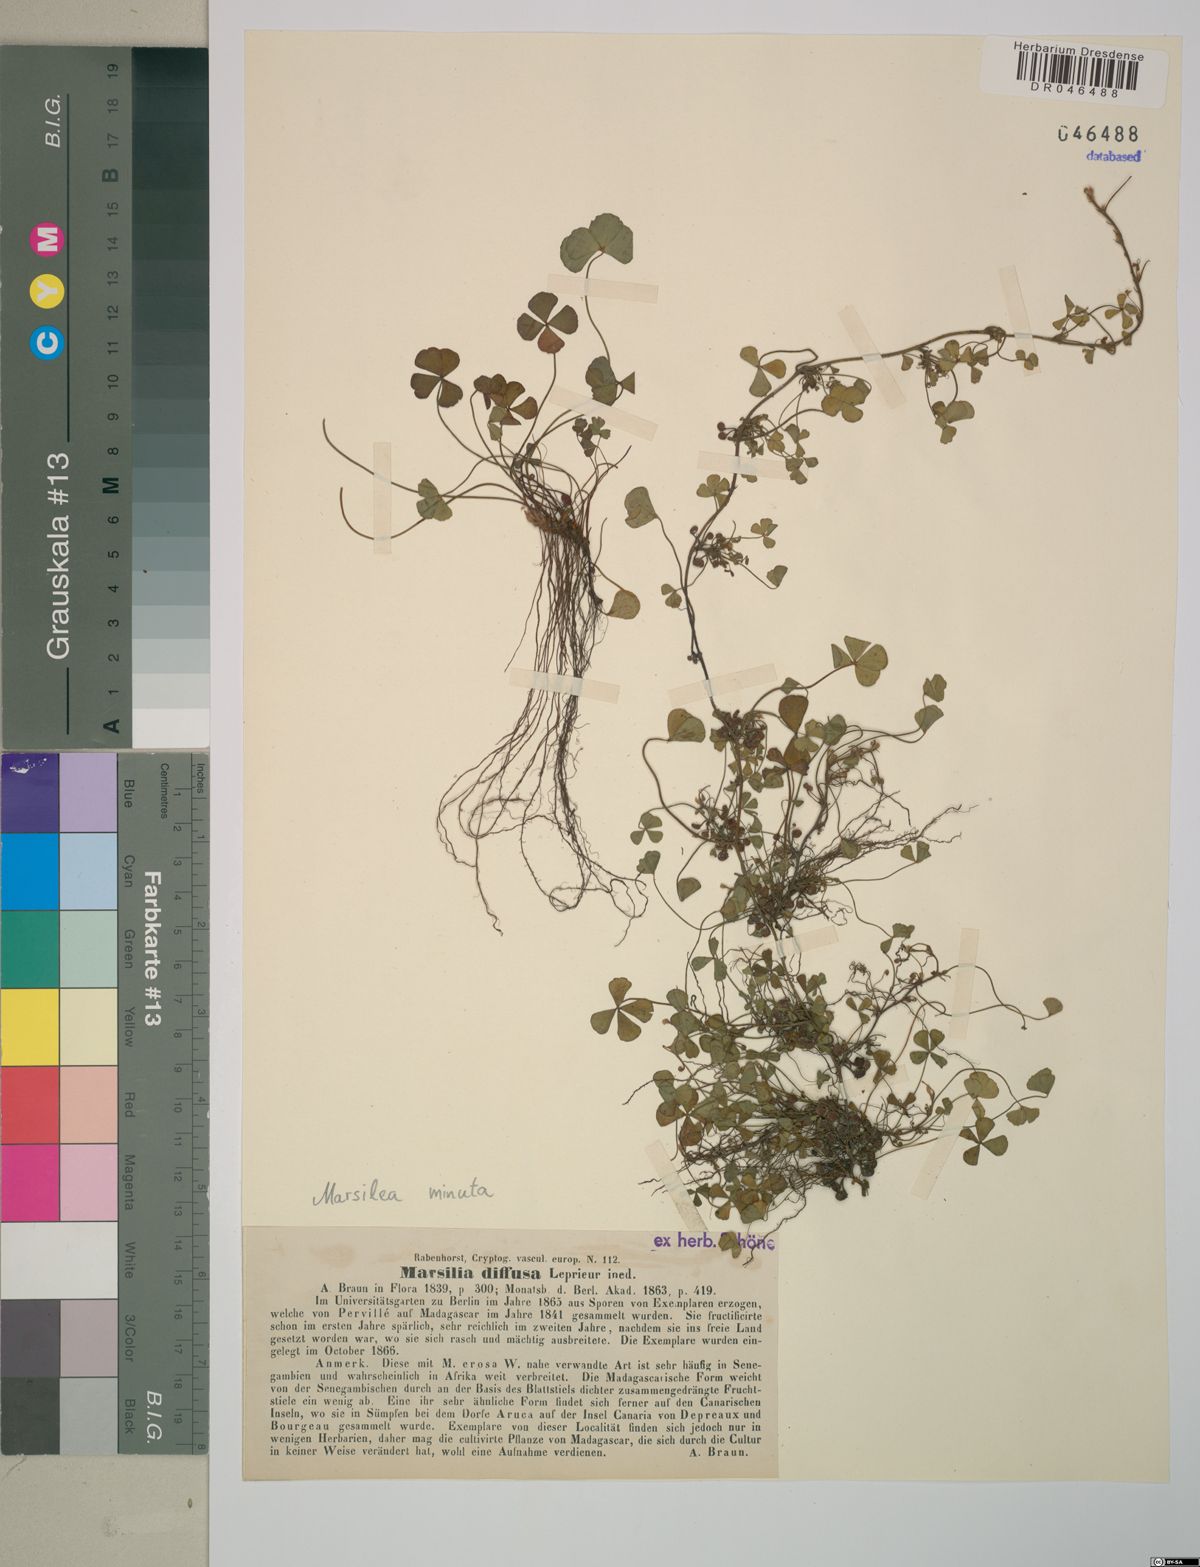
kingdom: Plantae
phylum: Tracheophyta
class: Polypodiopsida
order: Salviniales
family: Marsileaceae
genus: Marsilea
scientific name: Marsilea minuta
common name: Dwarf waterclover
